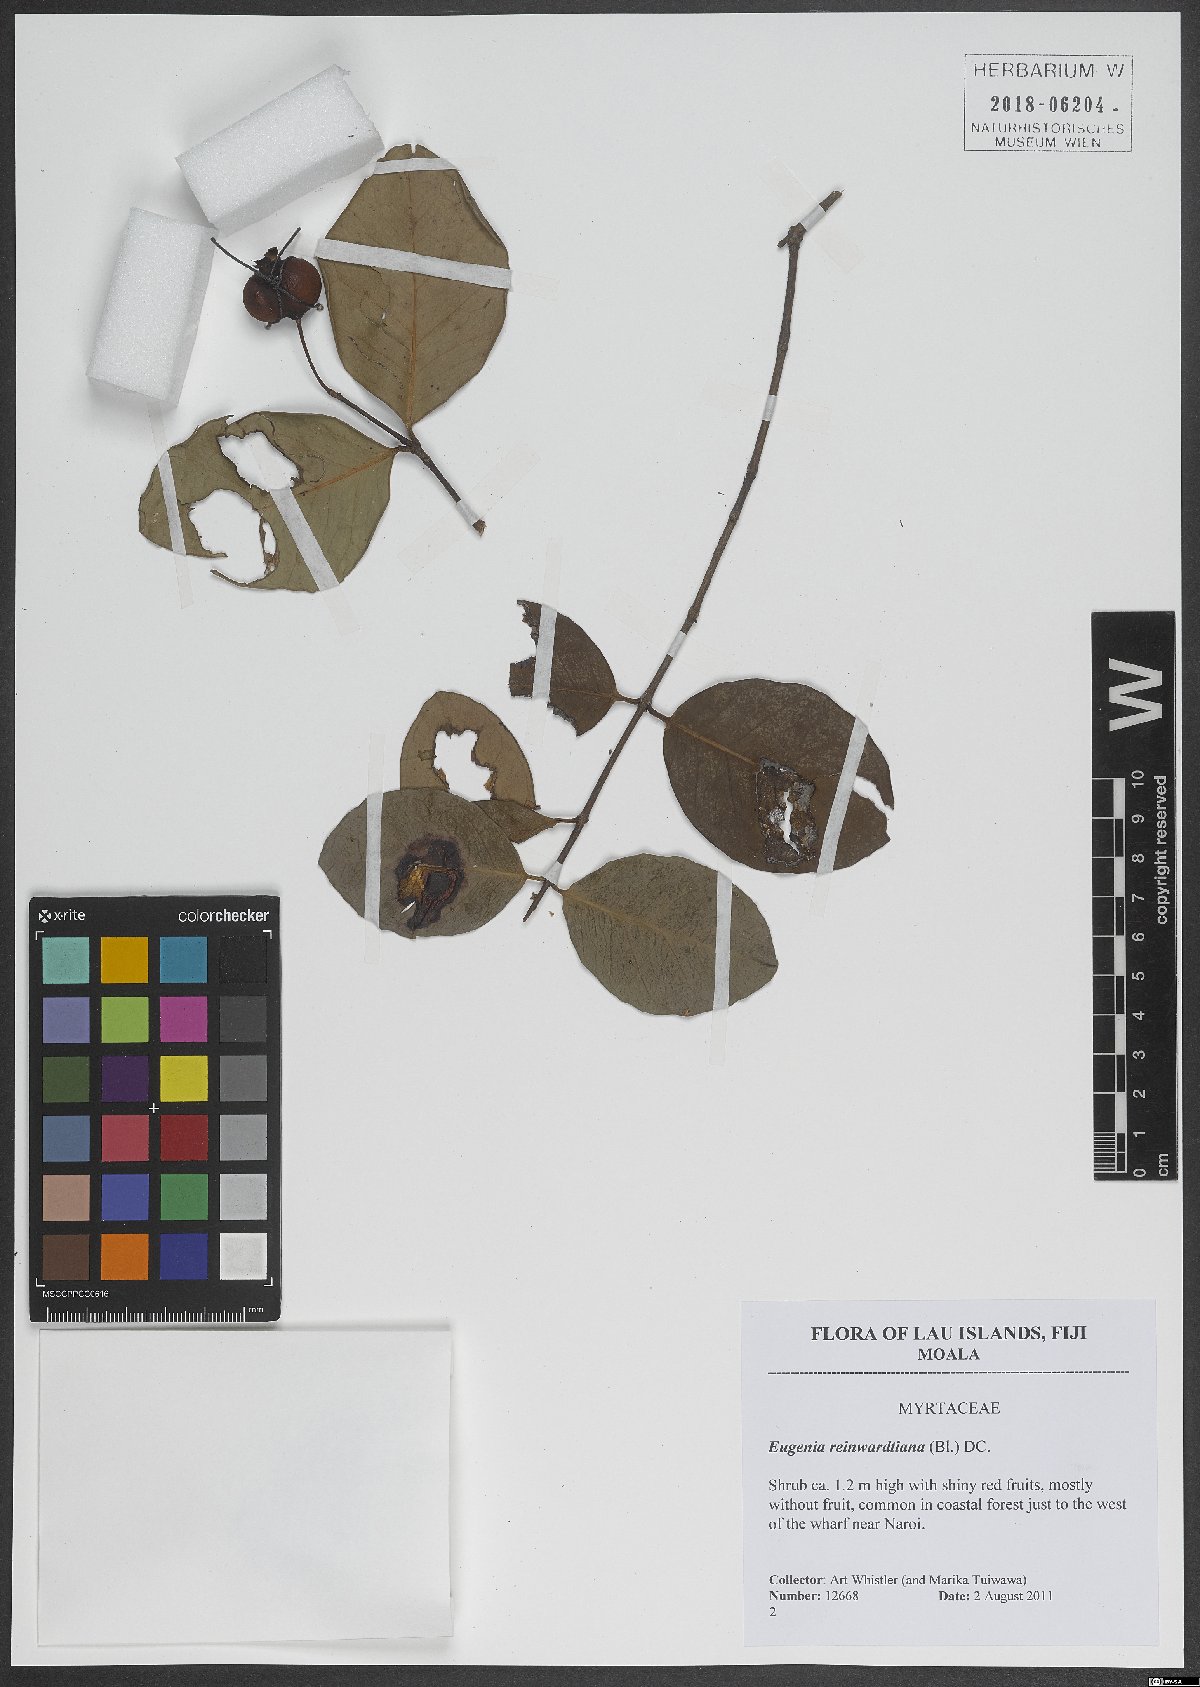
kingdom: Plantae
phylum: Tracheophyta
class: Magnoliopsida
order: Myrtales
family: Myrtaceae
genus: Eugenia
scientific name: Eugenia reinwardtiana
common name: Cedar bay-cherry
